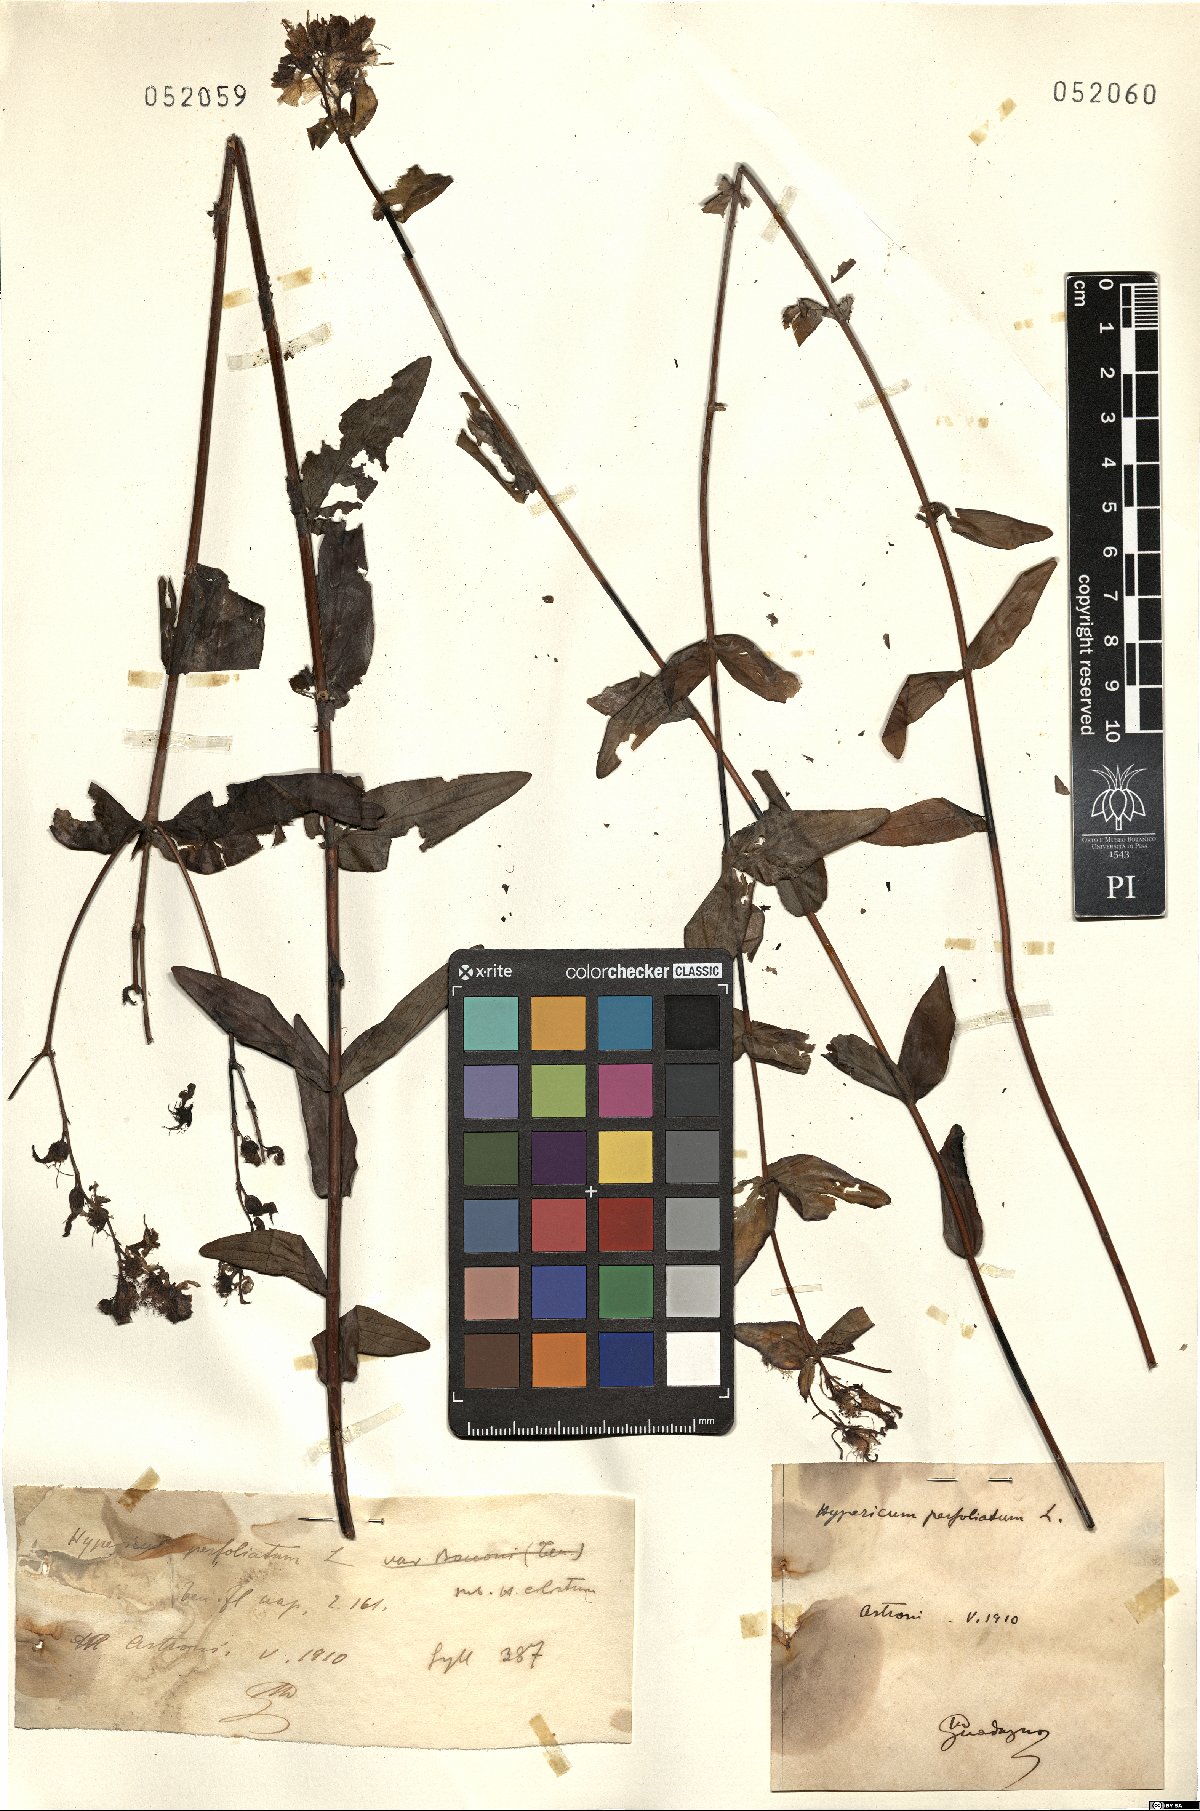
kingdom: Plantae
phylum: Tracheophyta
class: Magnoliopsida
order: Malpighiales
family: Hypericaceae
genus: Hypericum
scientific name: Hypericum perfoliatum
